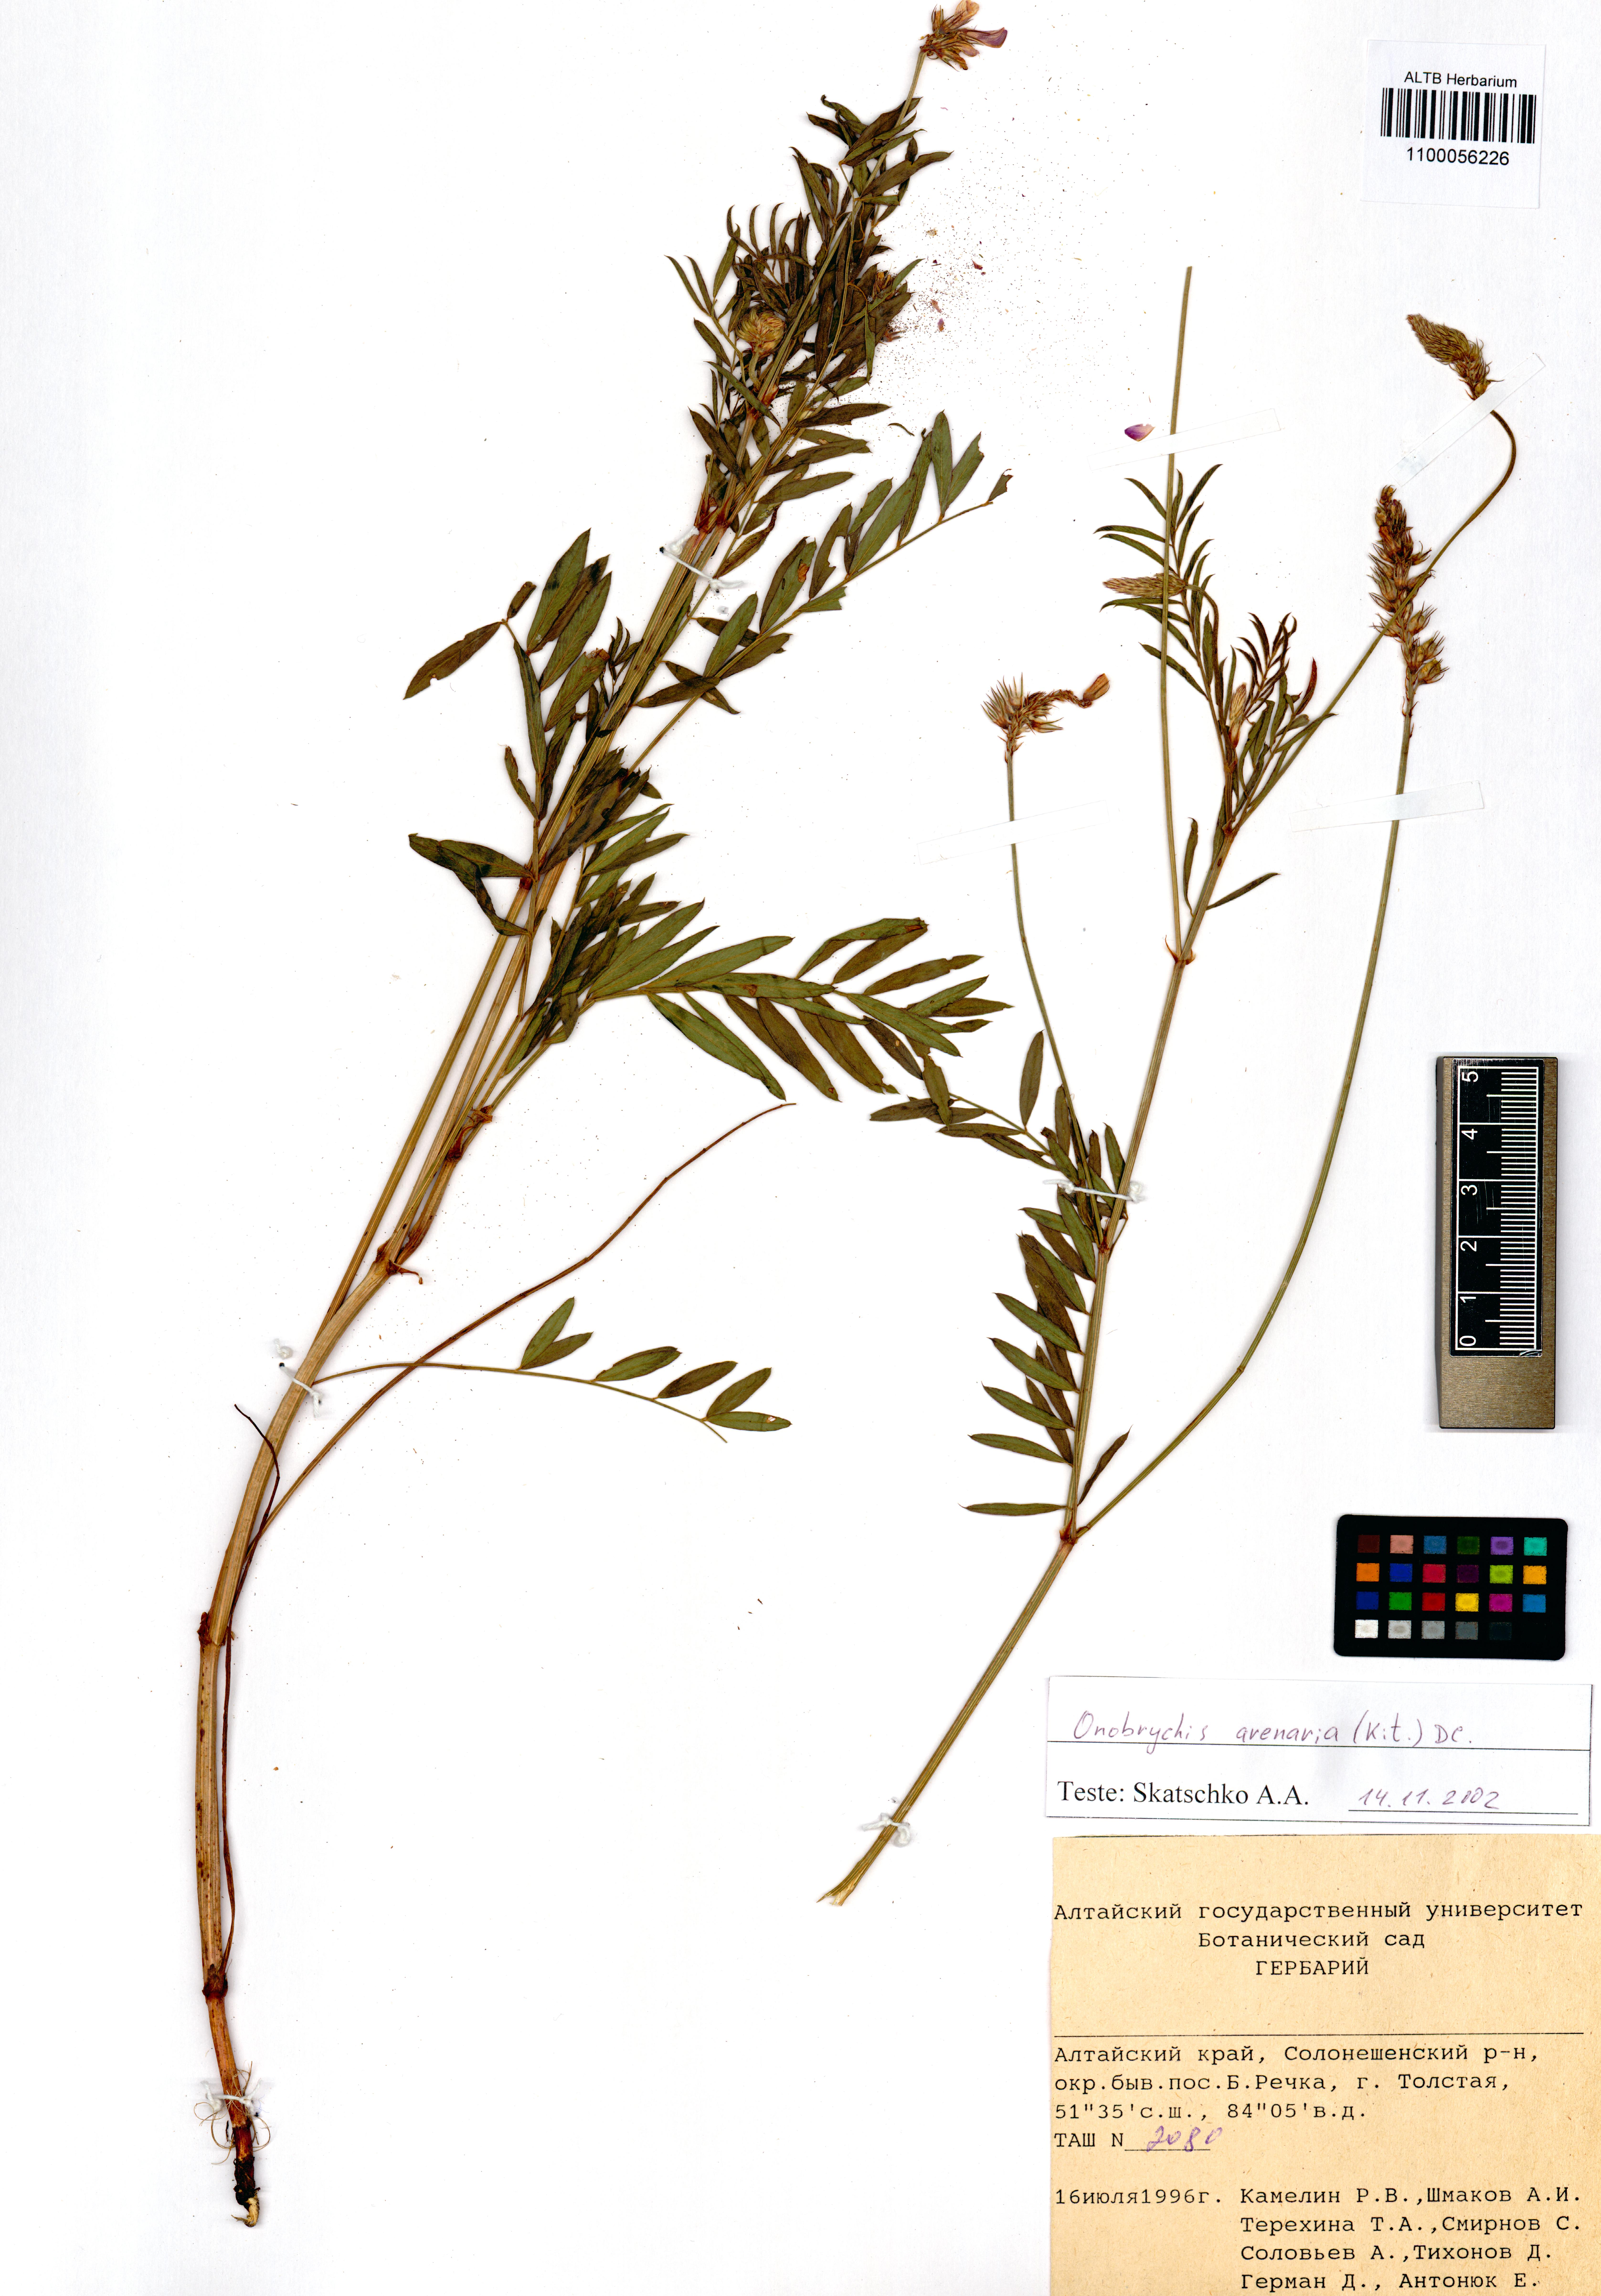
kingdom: Plantae
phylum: Tracheophyta
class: Magnoliopsida
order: Fabales
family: Fabaceae
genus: Onobrychis
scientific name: Onobrychis arenaria
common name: Sand esparcet
